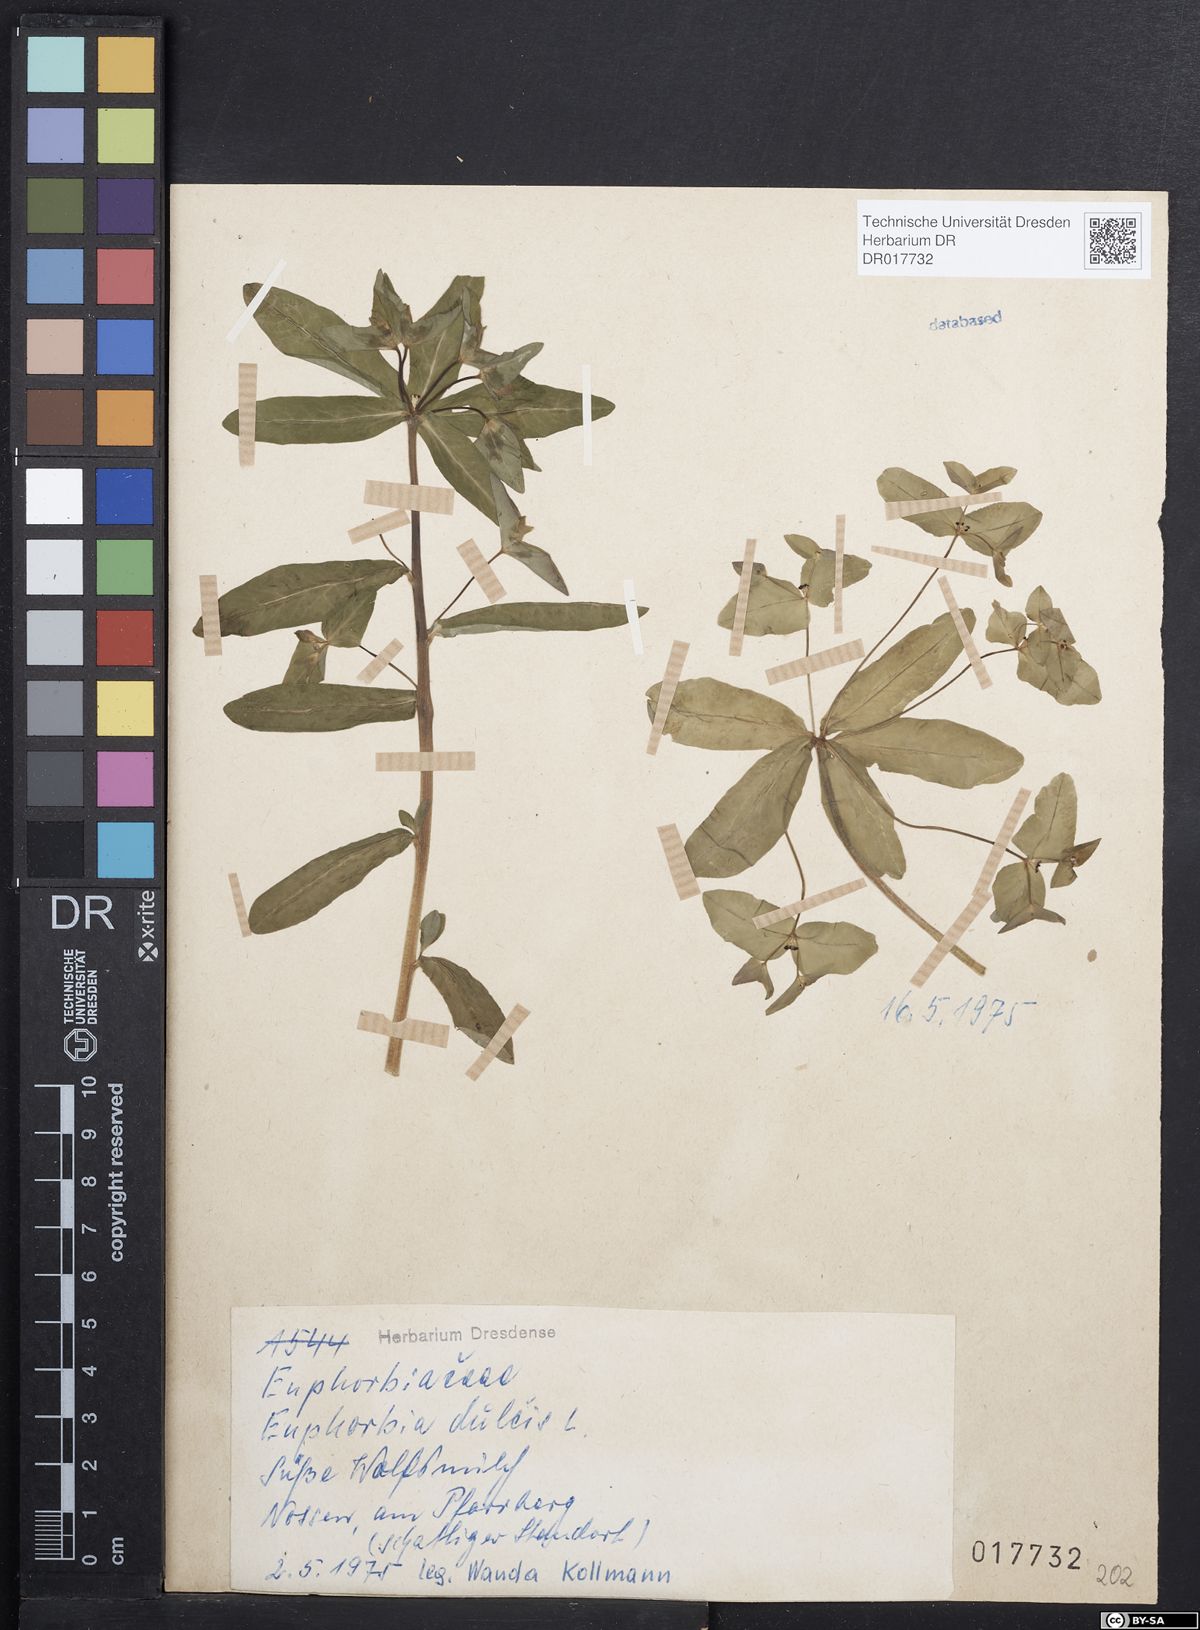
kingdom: Plantae
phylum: Tracheophyta
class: Magnoliopsida
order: Malpighiales
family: Euphorbiaceae
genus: Euphorbia
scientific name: Euphorbia dulcis
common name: Sweet spurge
